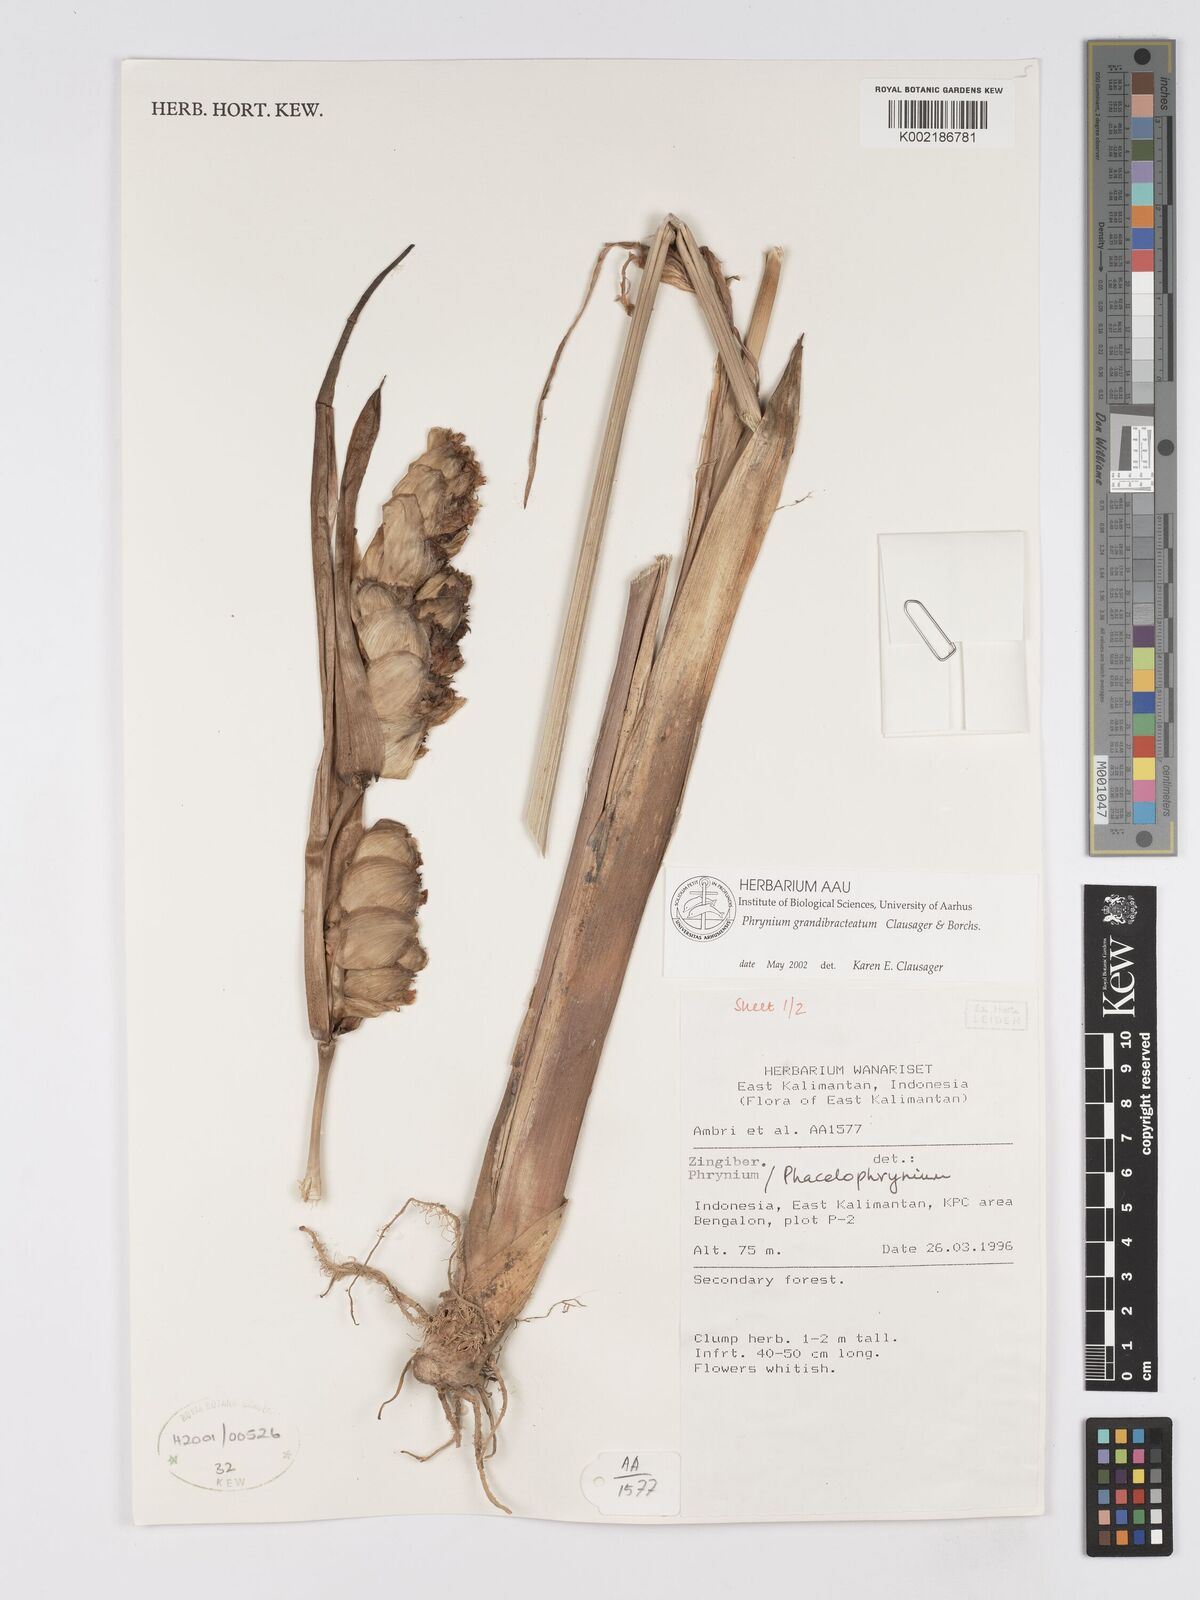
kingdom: Plantae
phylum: Tracheophyta
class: Liliopsida
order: Zingiberales
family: Marantaceae
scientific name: Marantaceae
